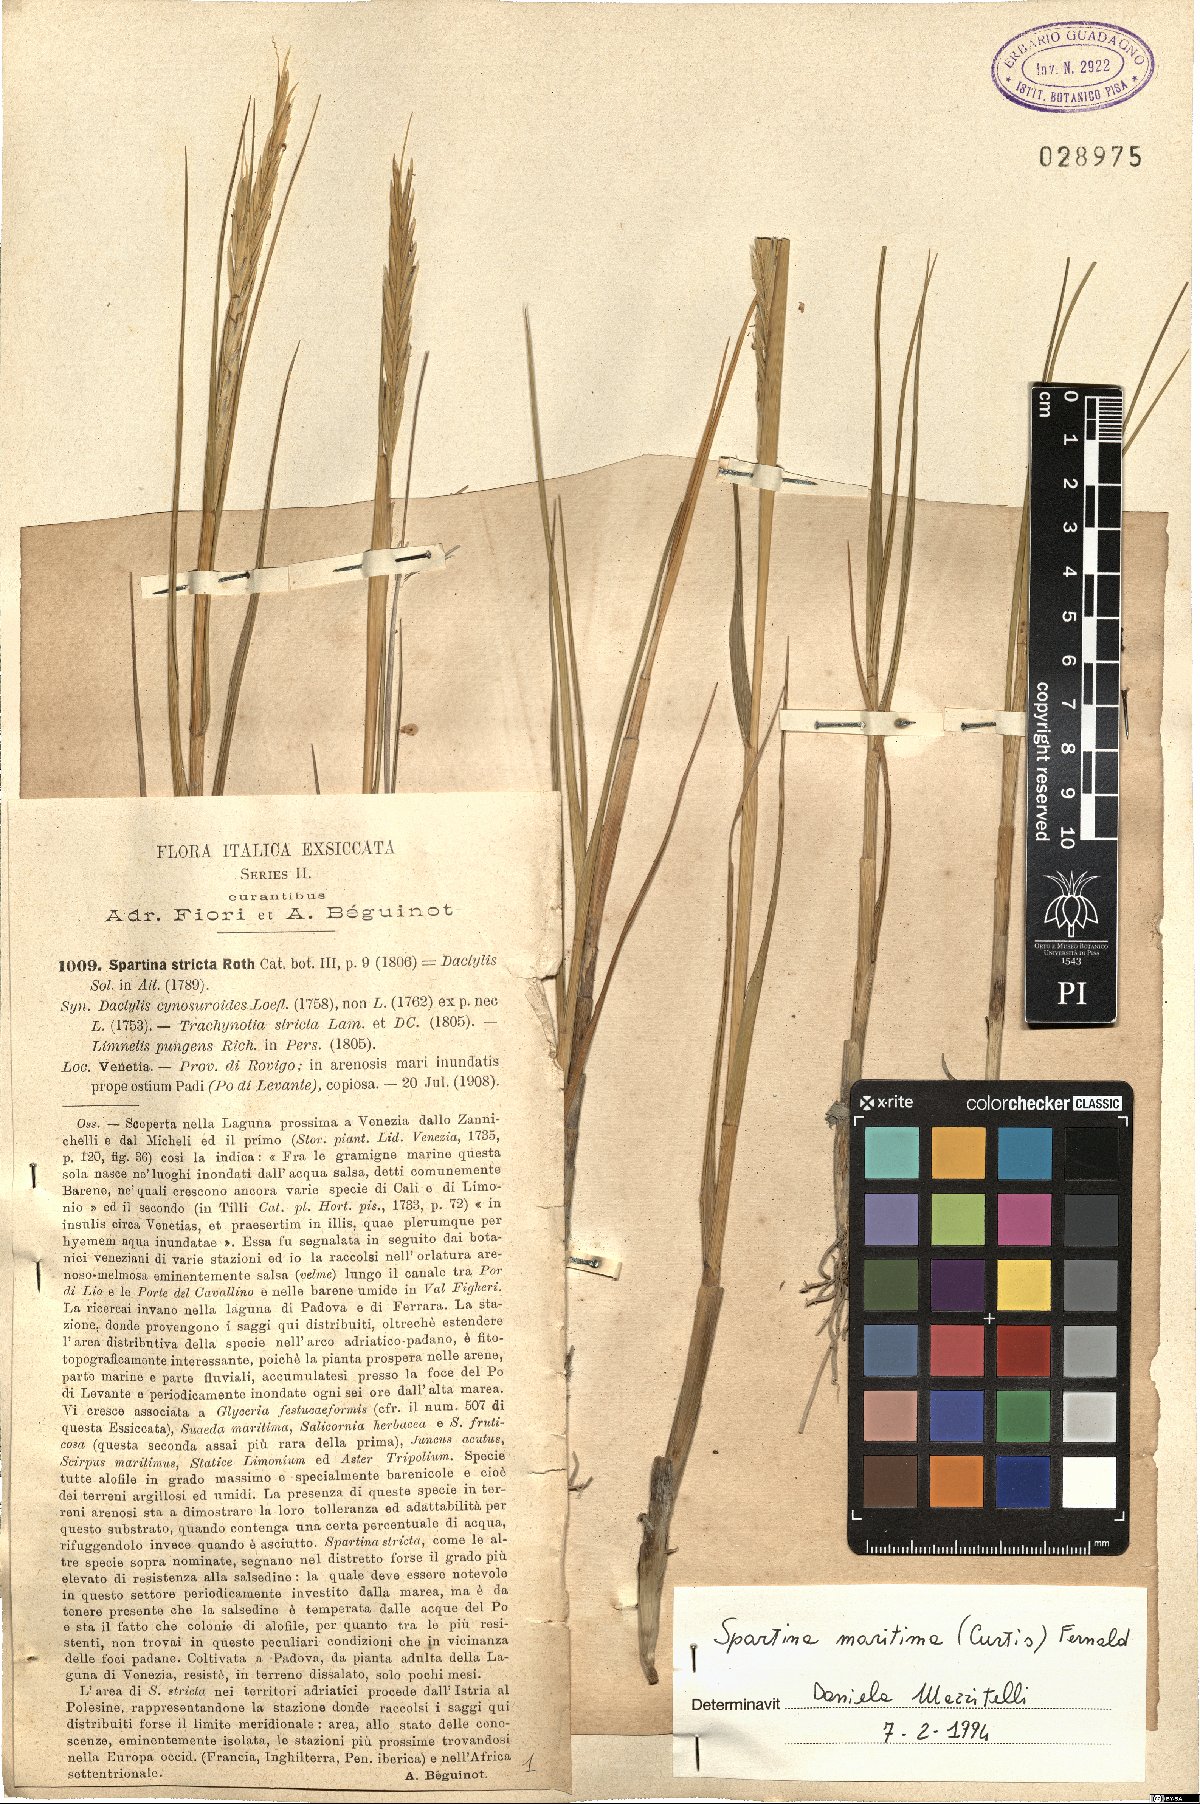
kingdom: Plantae
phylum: Tracheophyta
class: Liliopsida
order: Poales
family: Poaceae
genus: Sporobolus
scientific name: Sporobolus maritimus
